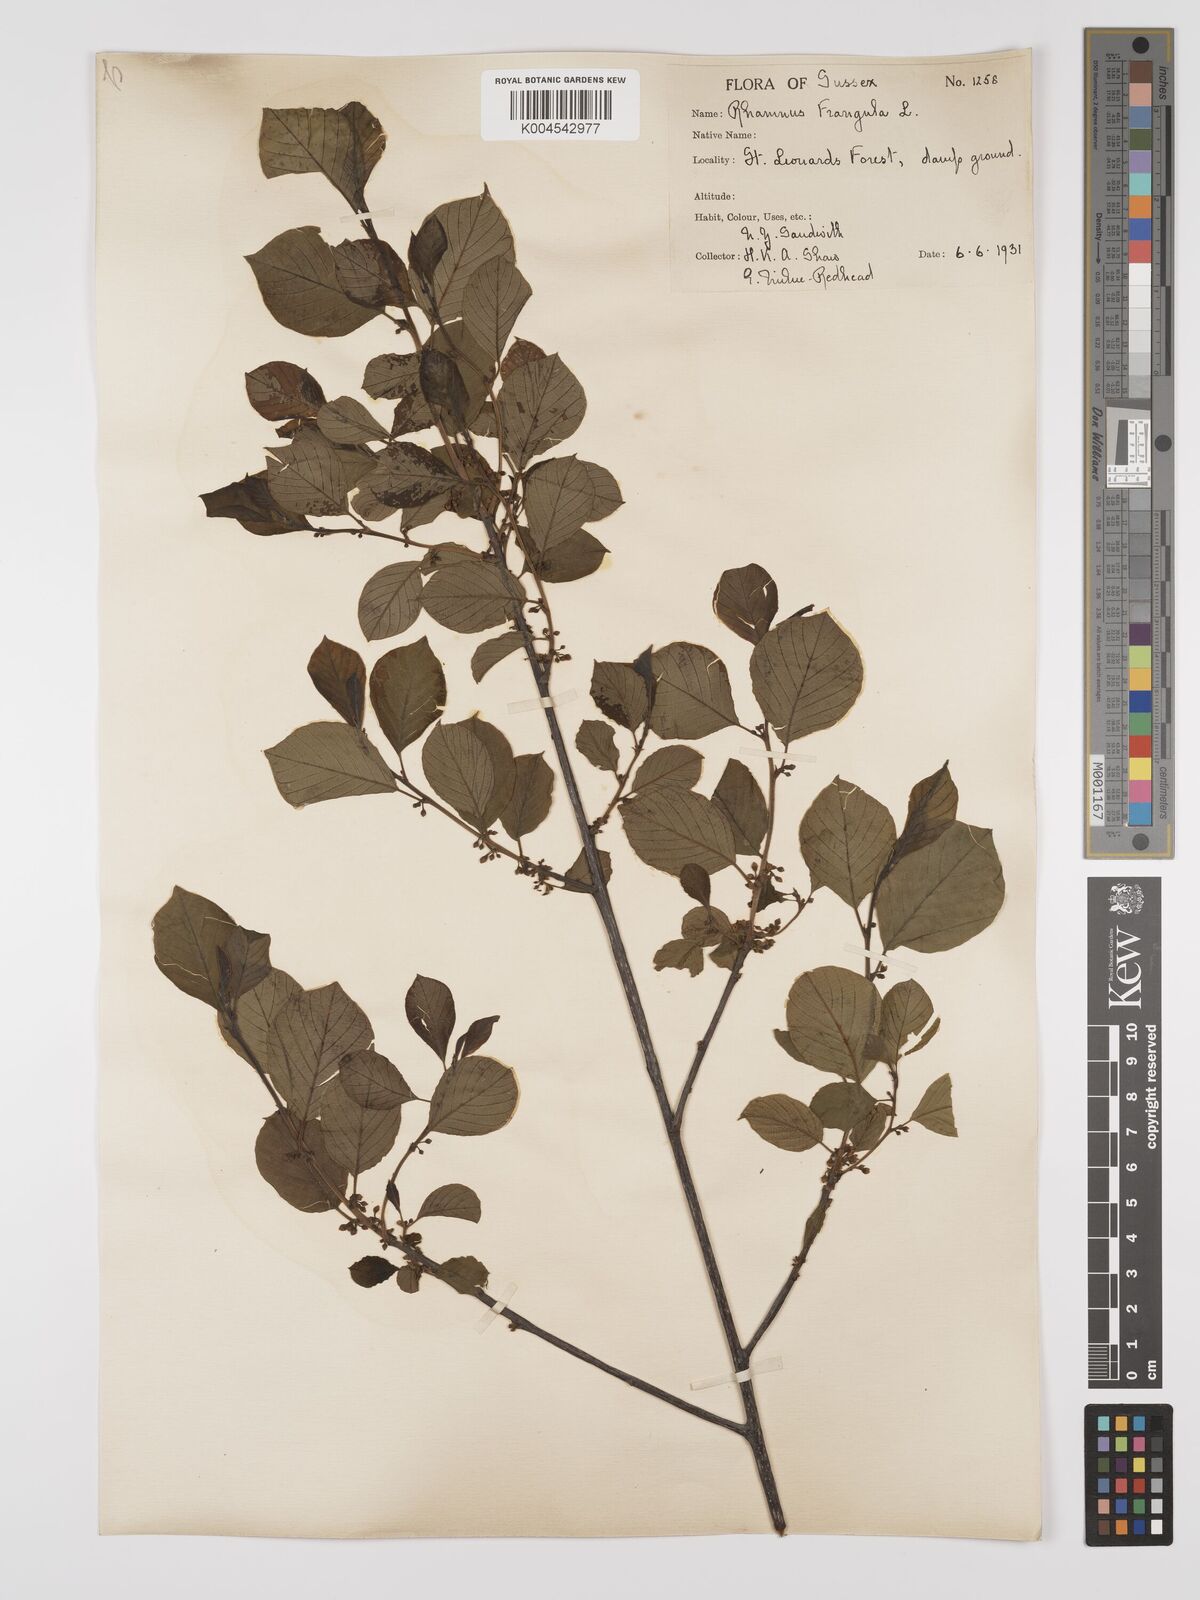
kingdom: Plantae
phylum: Tracheophyta
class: Magnoliopsida
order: Rosales
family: Rhamnaceae
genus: Frangula
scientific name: Frangula alnus
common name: Alder buckthorn
